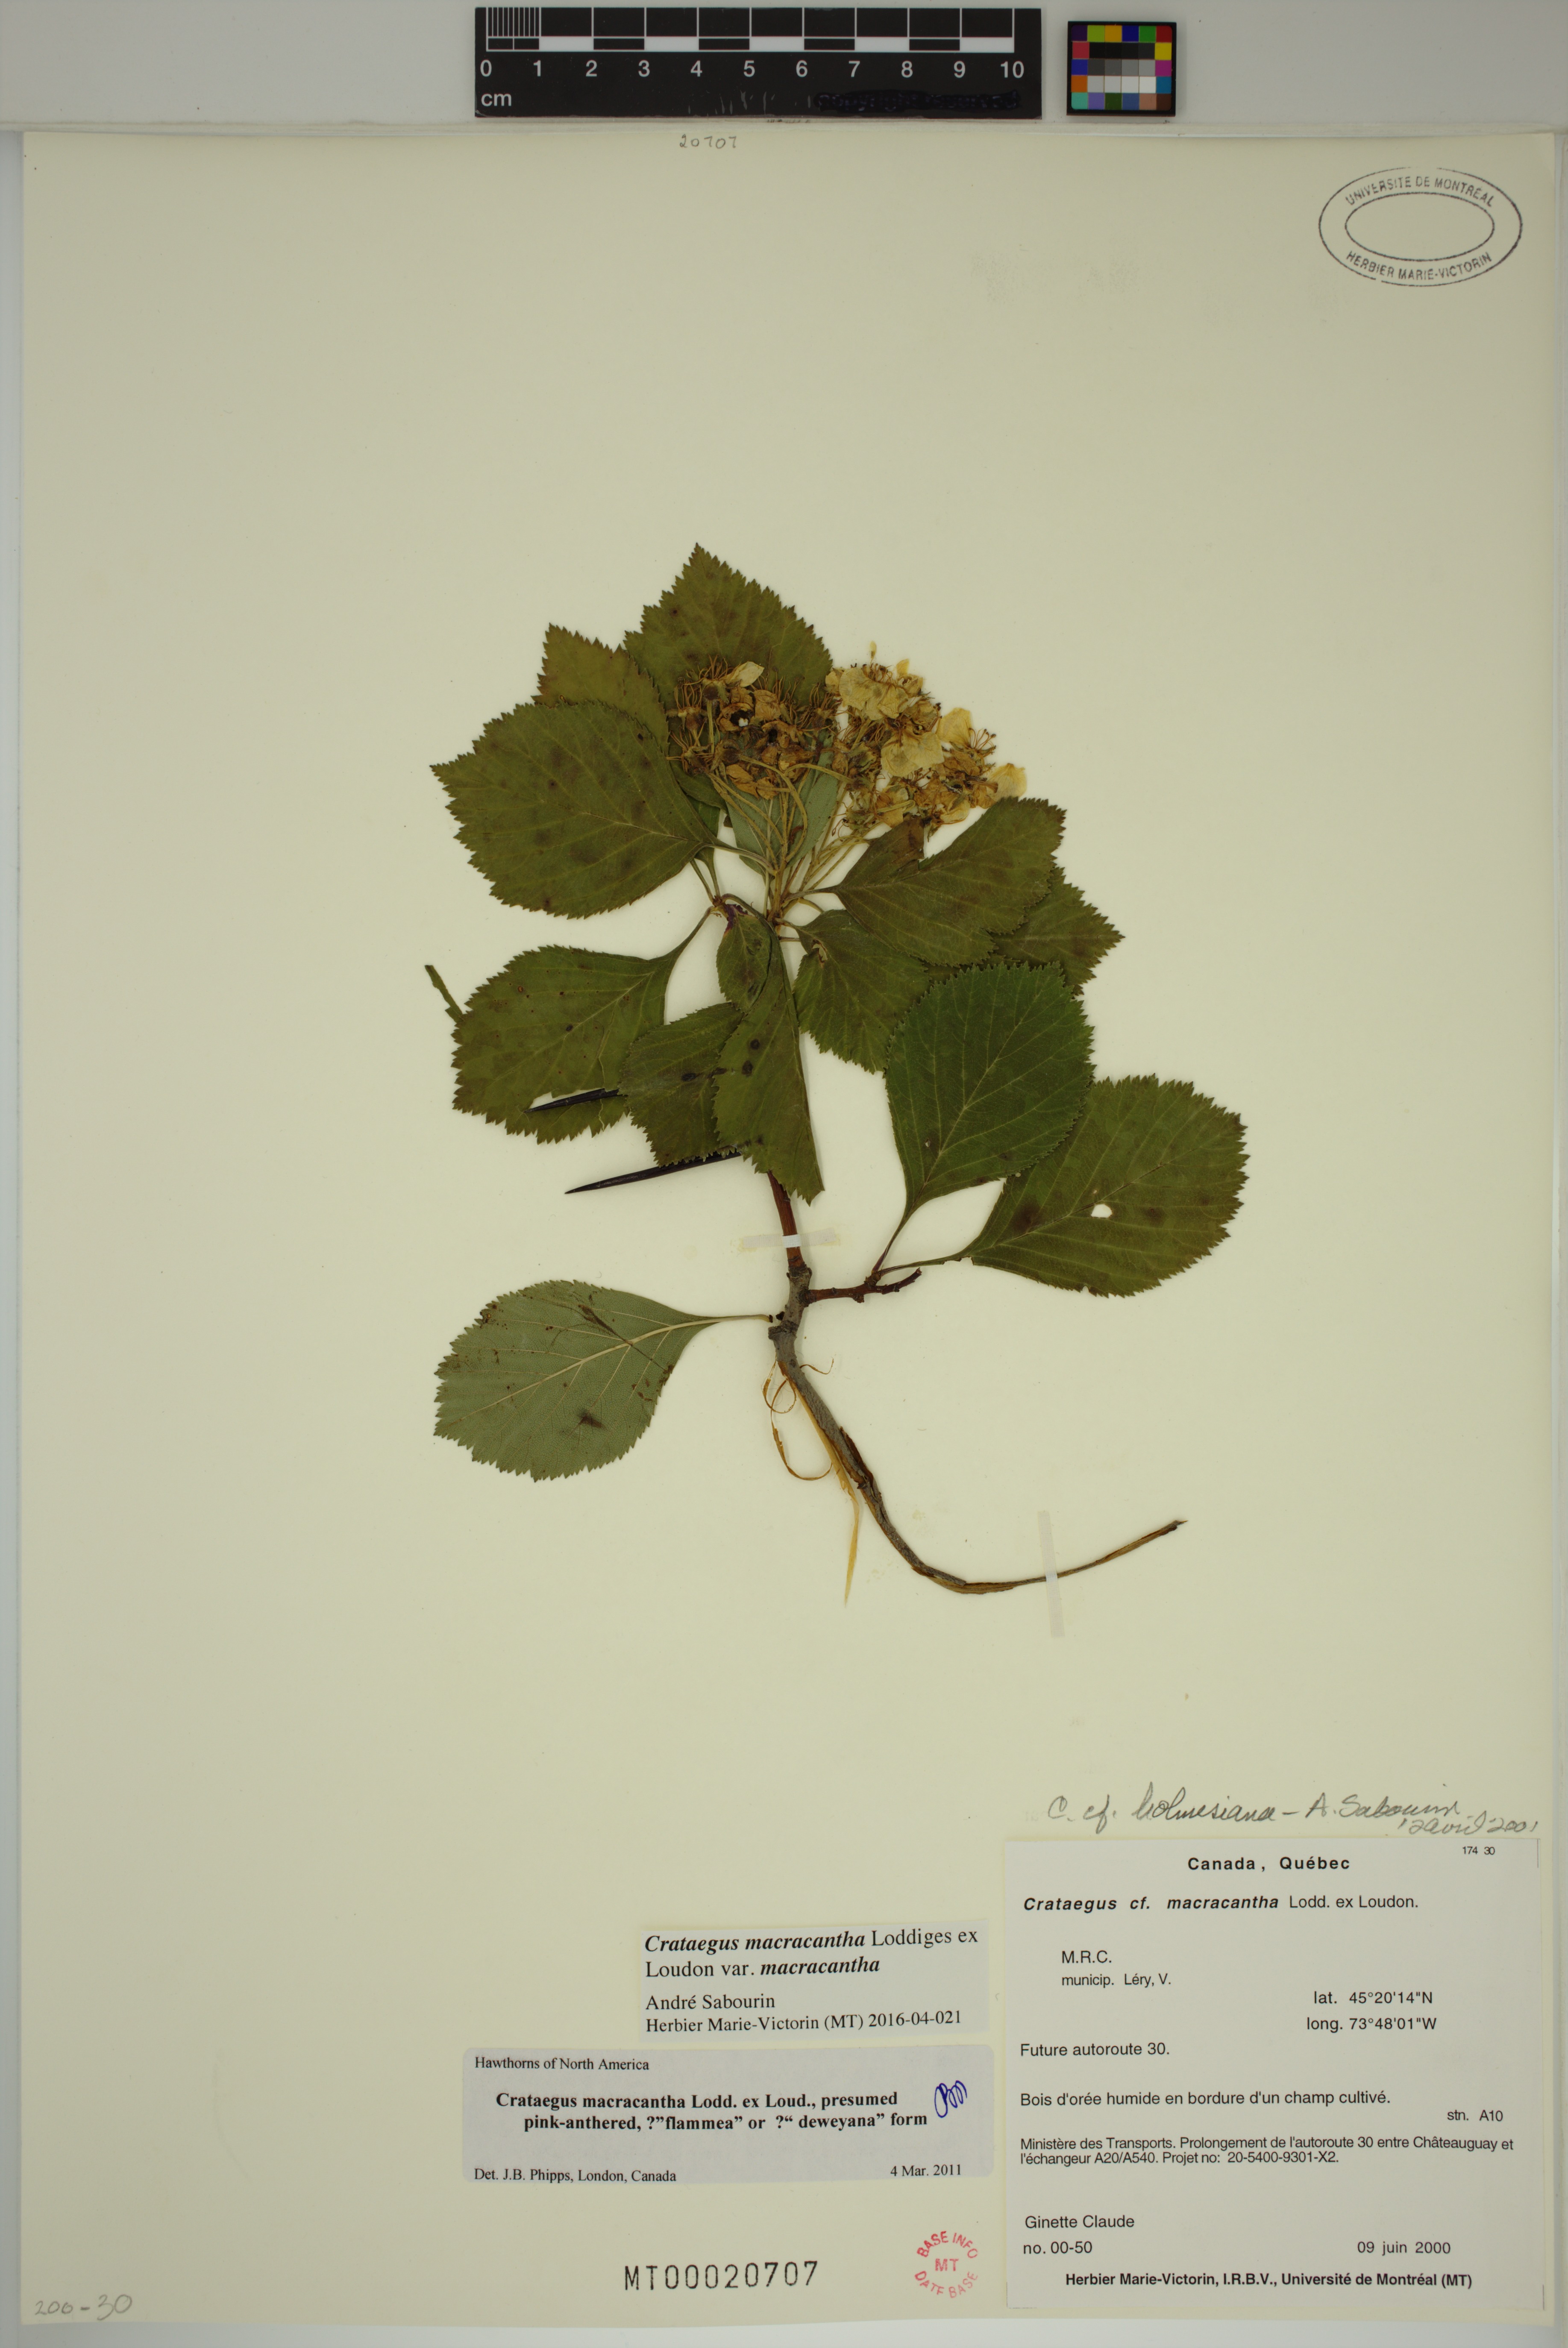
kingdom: Plantae
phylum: Tracheophyta
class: Magnoliopsida
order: Rosales
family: Rosaceae
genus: Crataegus
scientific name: Crataegus macracantha
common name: Large-thorn hawthorn
